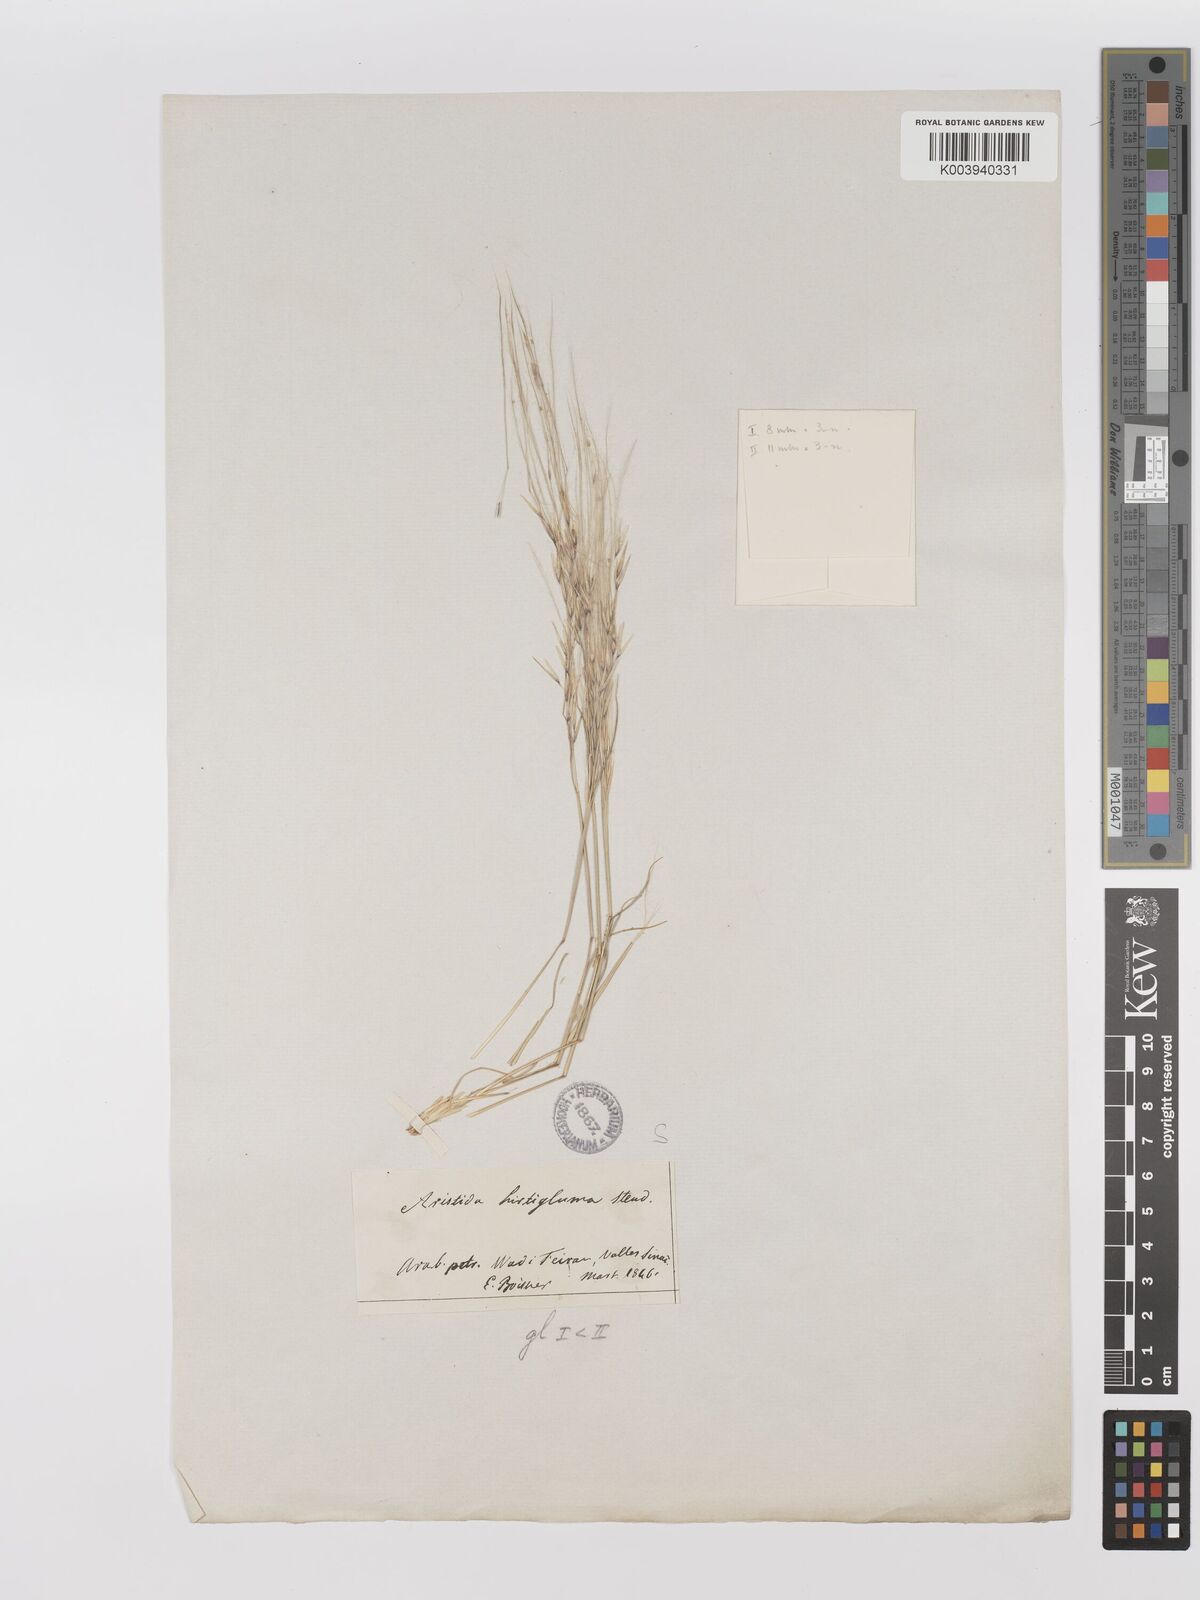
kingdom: Plantae
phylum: Tracheophyta
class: Liliopsida
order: Poales
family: Poaceae
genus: Stipagrostis
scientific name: Stipagrostis hirtigluma
